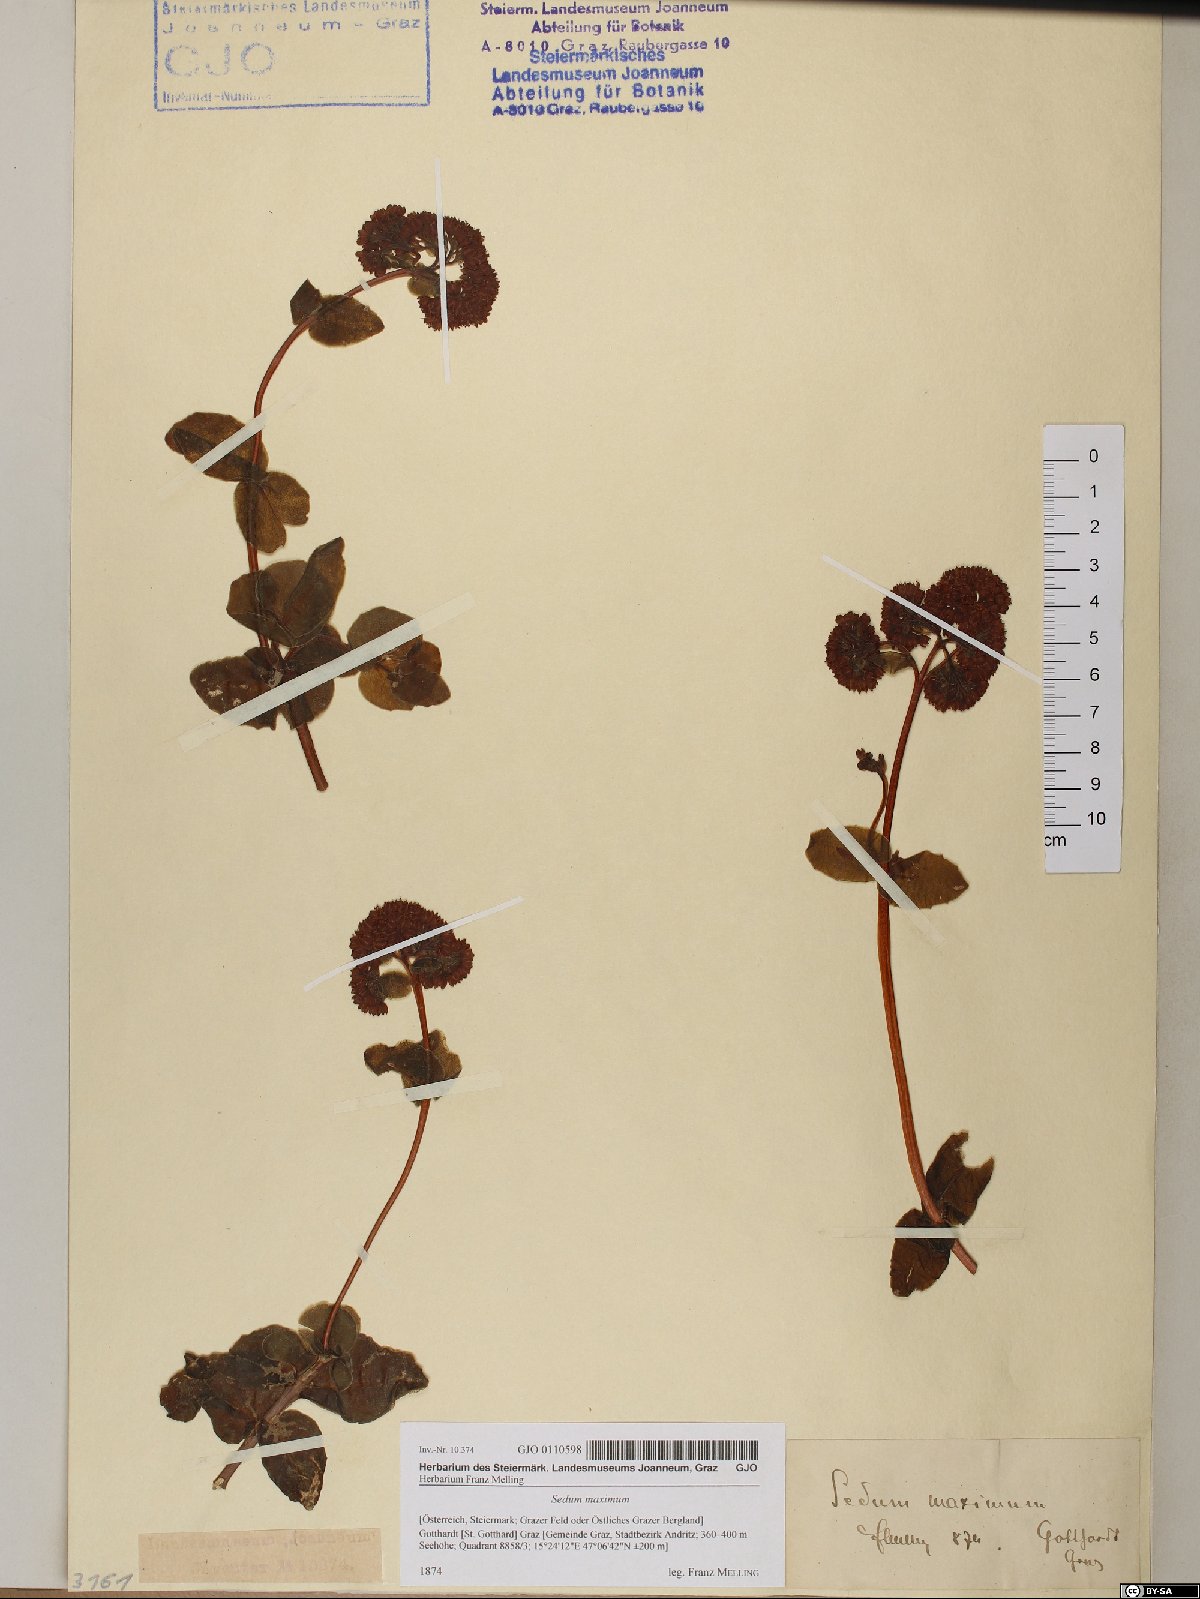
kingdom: Plantae
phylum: Tracheophyta
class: Magnoliopsida
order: Saxifragales
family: Crassulaceae
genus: Hylotelephium
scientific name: Hylotelephium maximum
